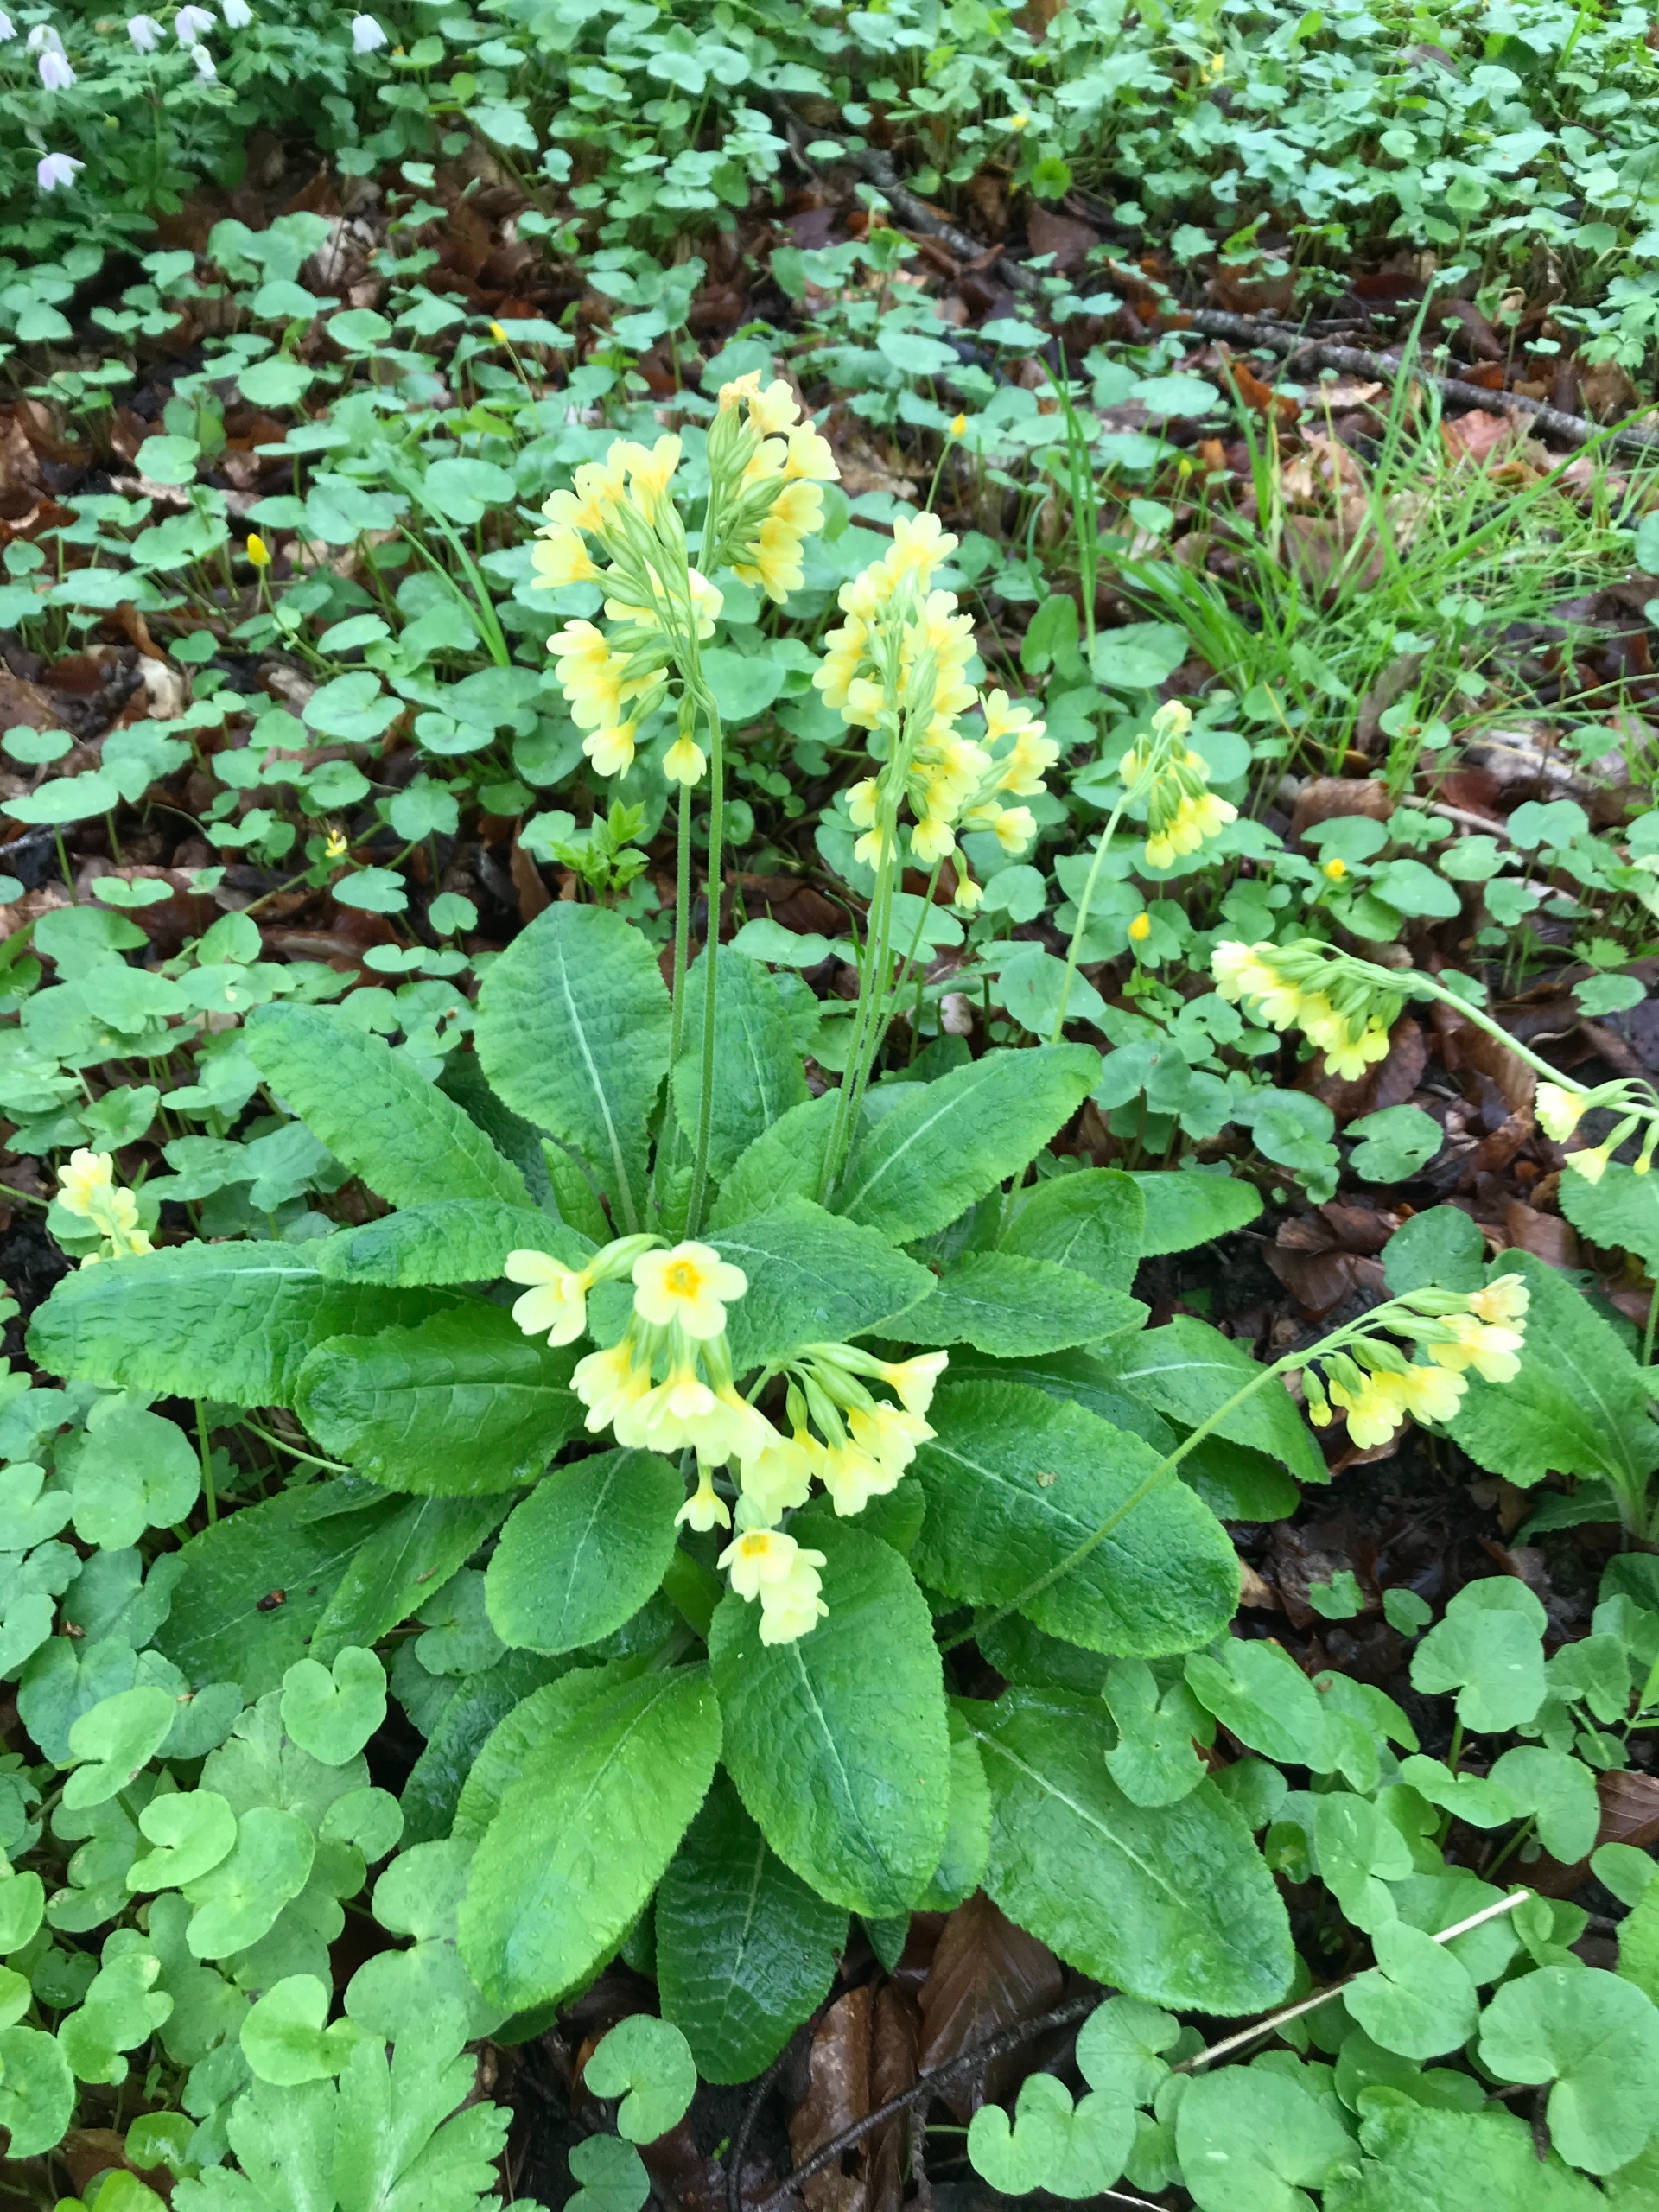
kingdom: Plantae
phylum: Tracheophyta
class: Magnoliopsida
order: Ericales
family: Primulaceae
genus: Primula
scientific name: Primula elatior
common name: Fladkravet kodriver
